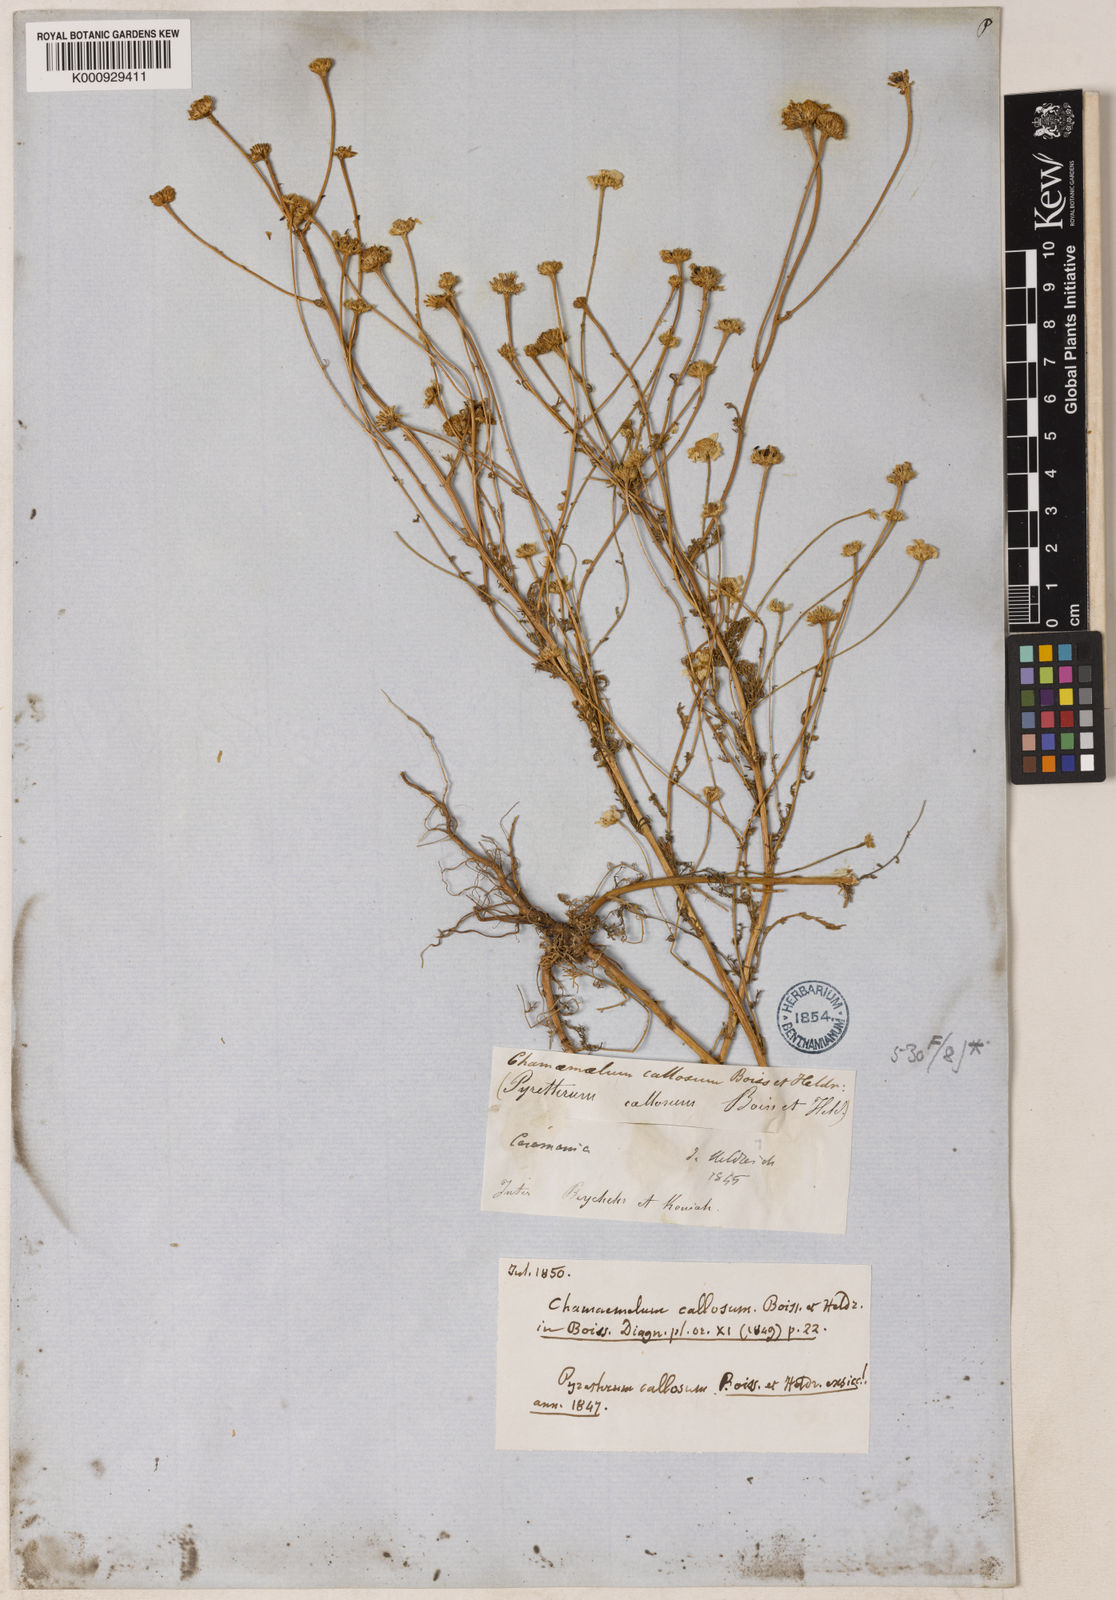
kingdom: Plantae
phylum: Tracheophyta
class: Magnoliopsida
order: Asterales
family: Asteraceae
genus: Tripleurospermum
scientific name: Tripleurospermum callosum
